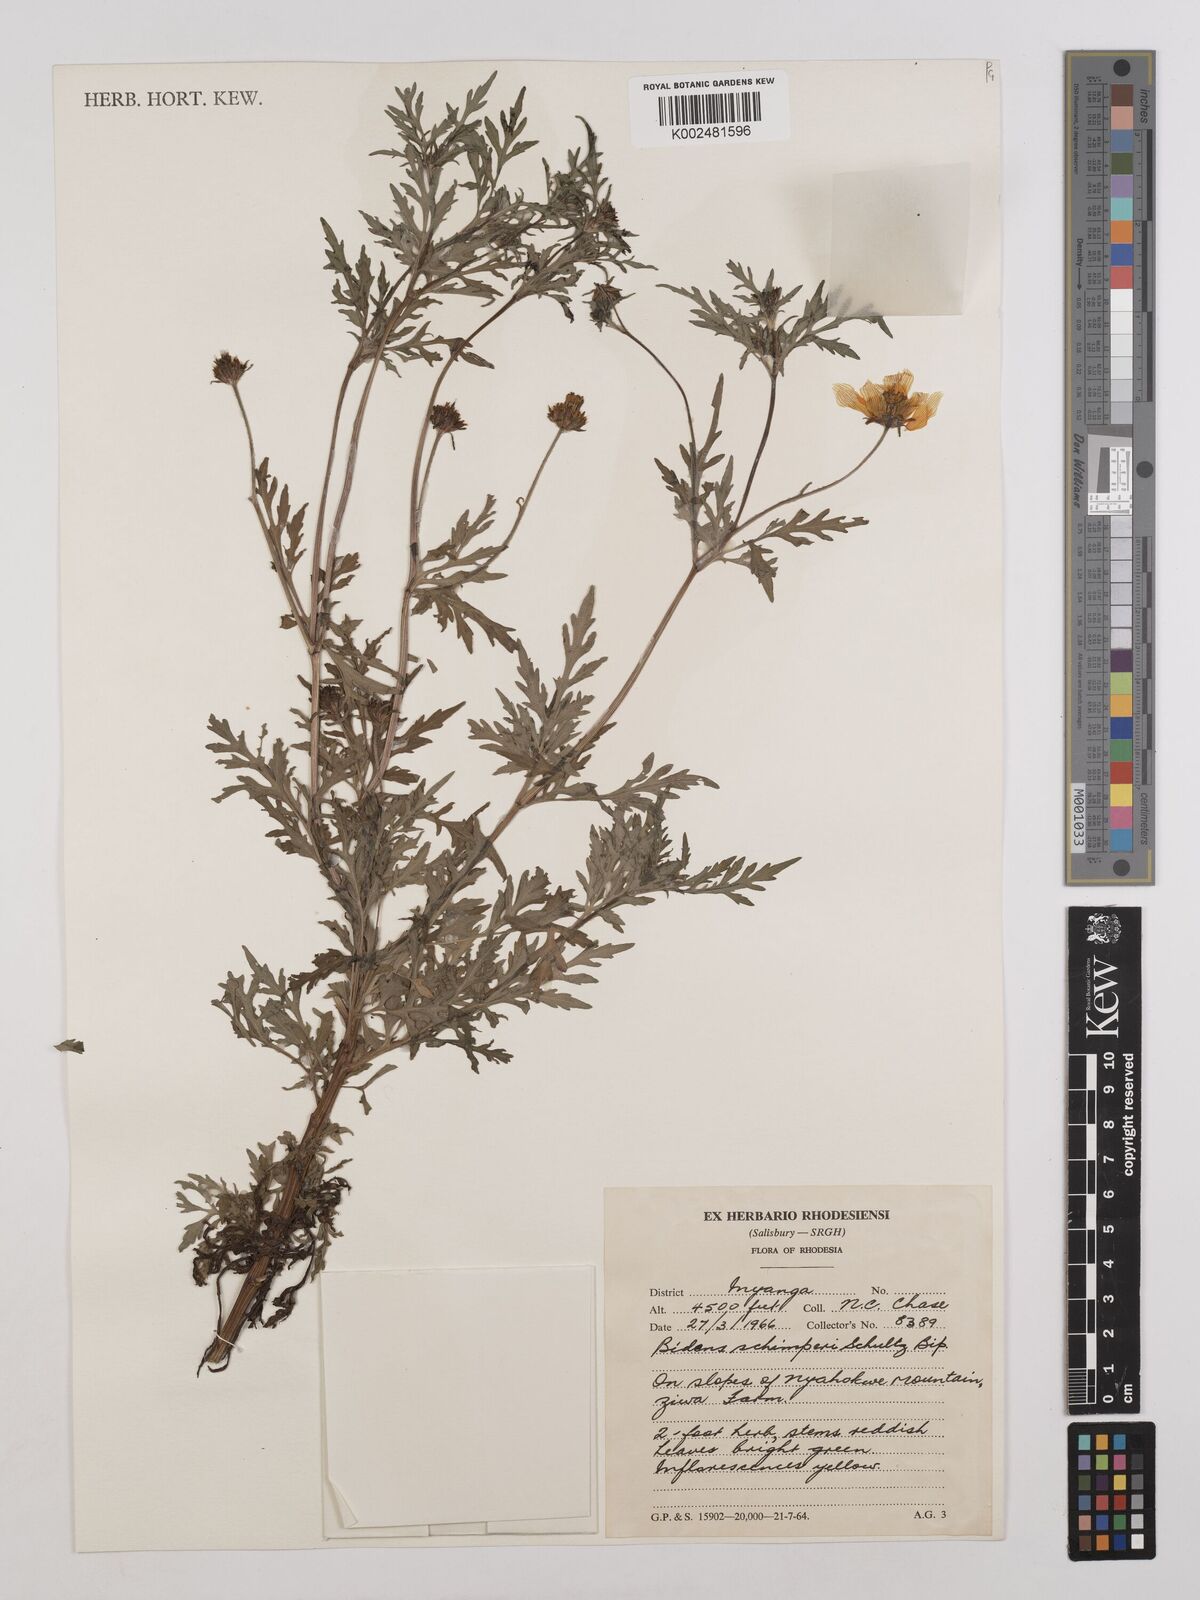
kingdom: Plantae
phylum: Tracheophyta
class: Magnoliopsida
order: Asterales
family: Asteraceae
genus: Bidens
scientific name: Bidens schimperi
